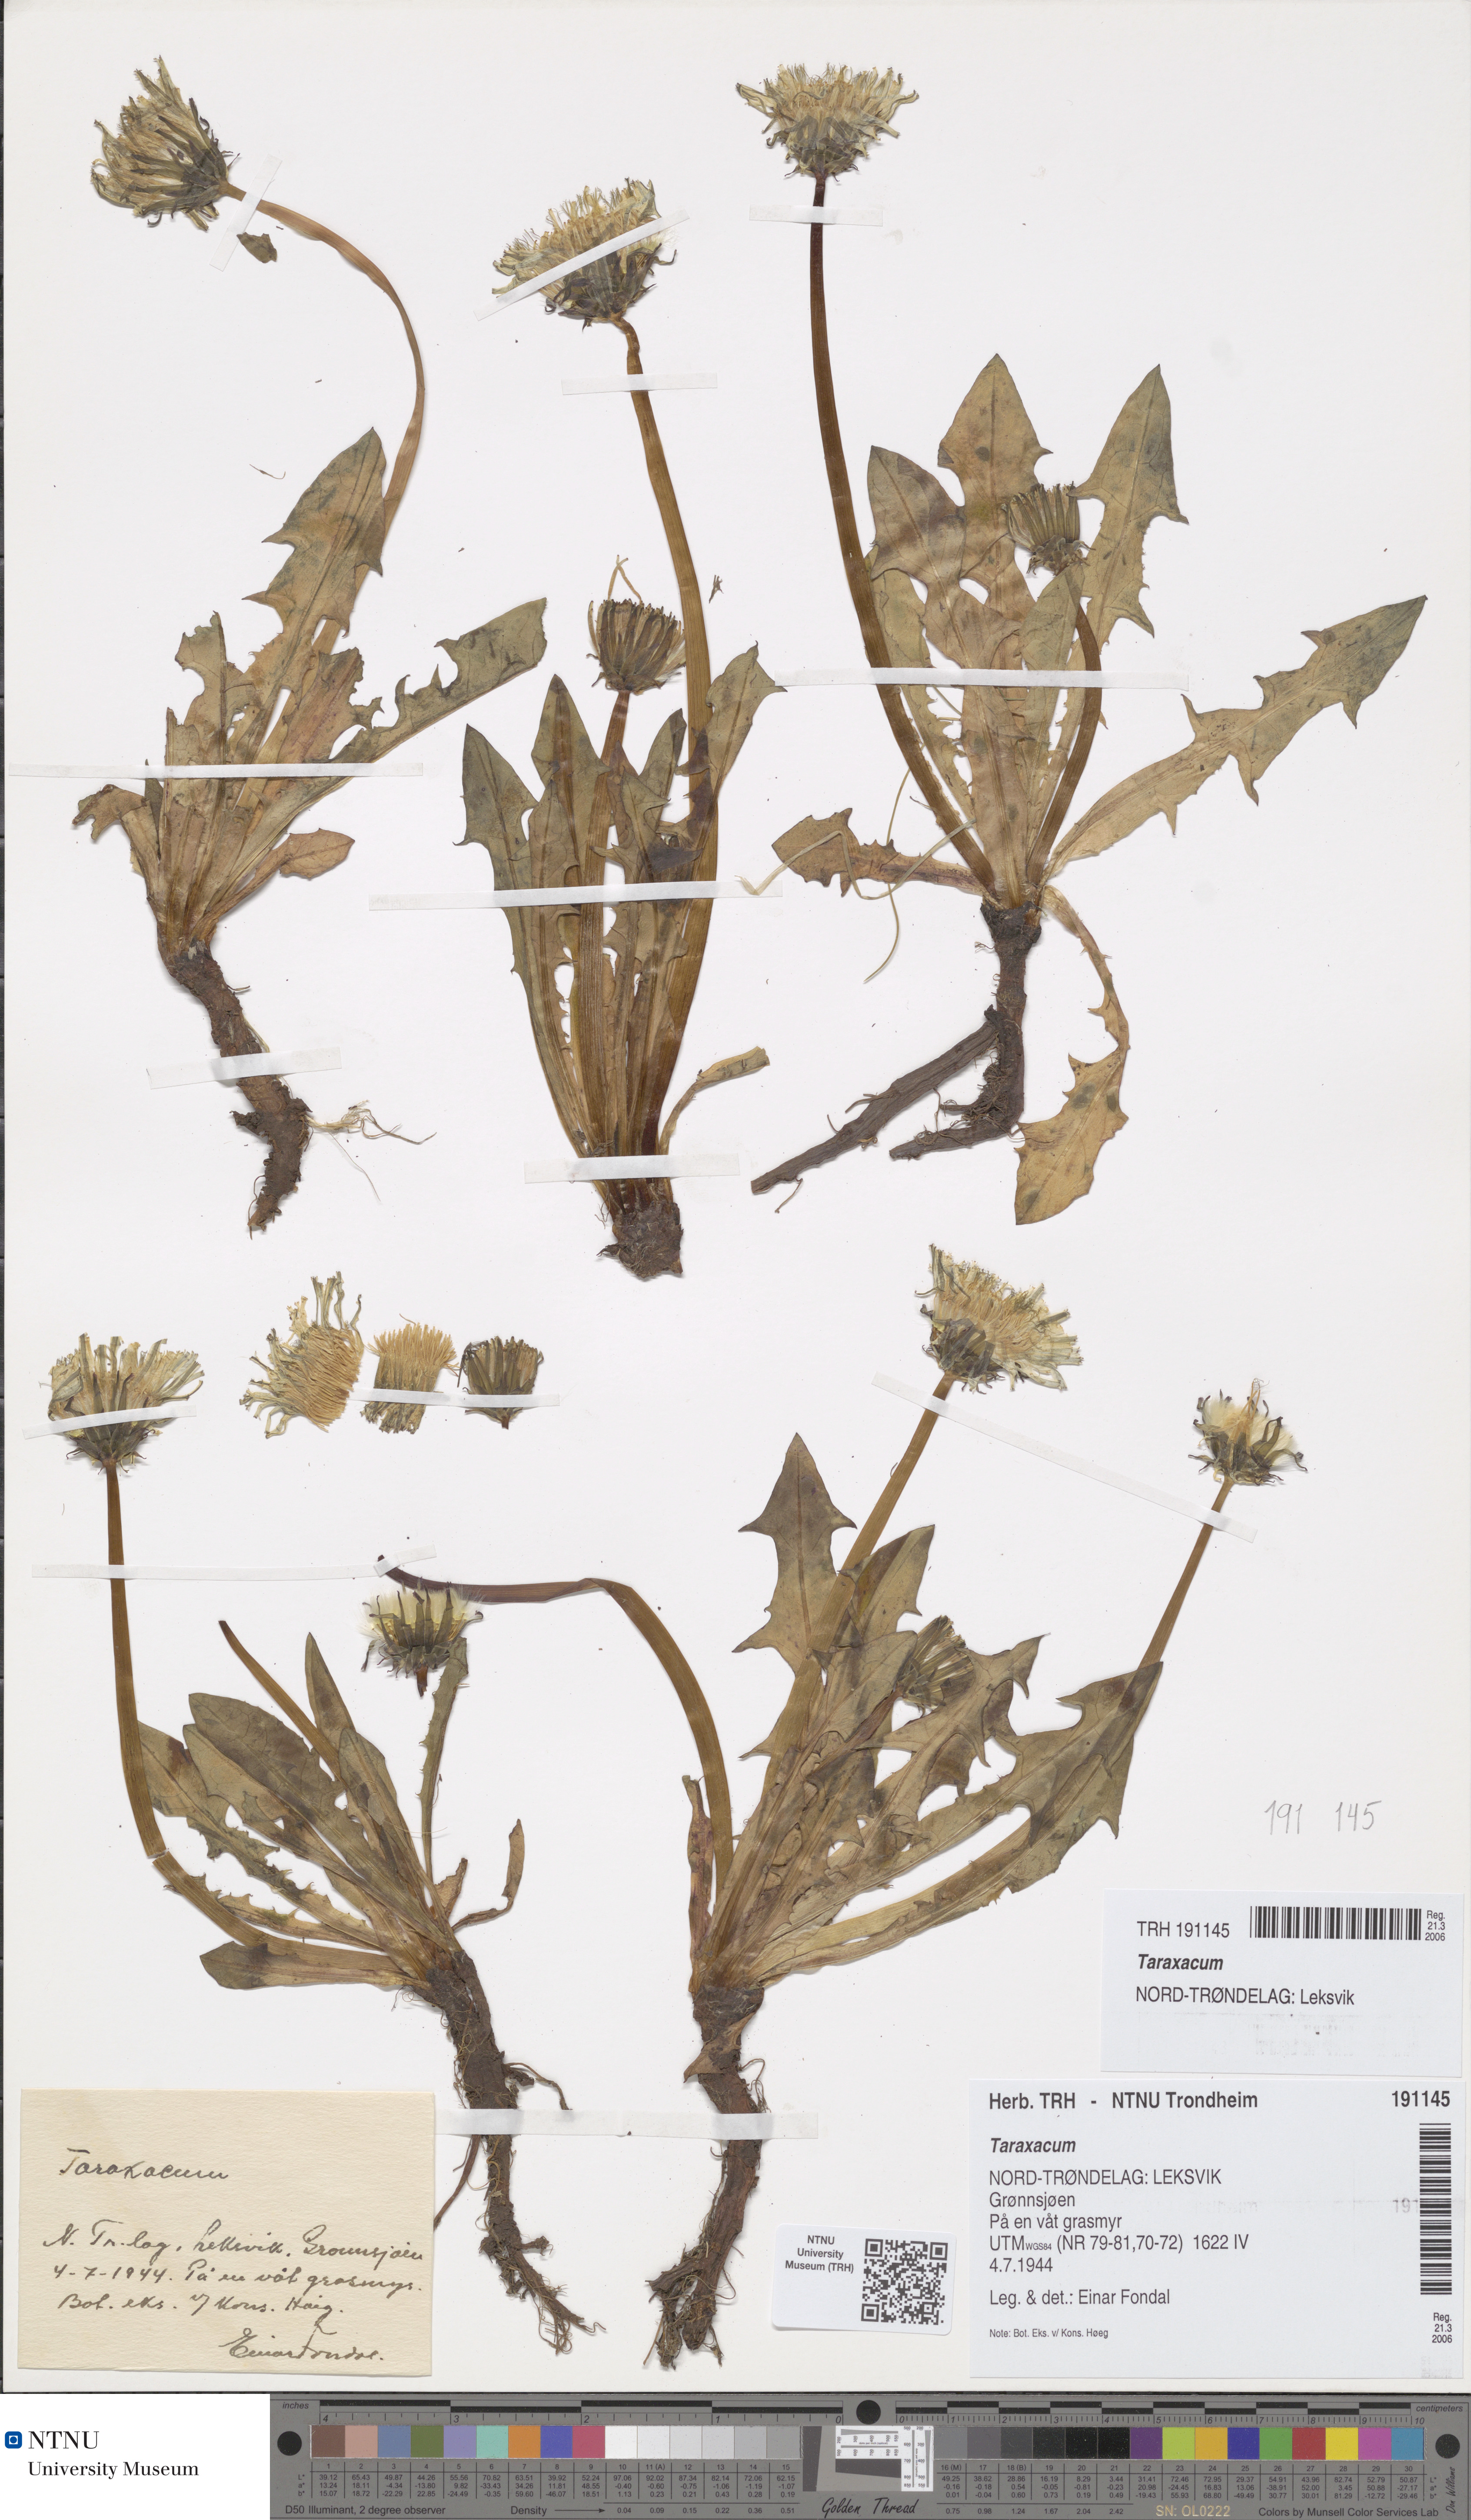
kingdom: Plantae
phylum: Tracheophyta
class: Magnoliopsida
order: Asterales
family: Asteraceae
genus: Taraxacum
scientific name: Taraxacum
